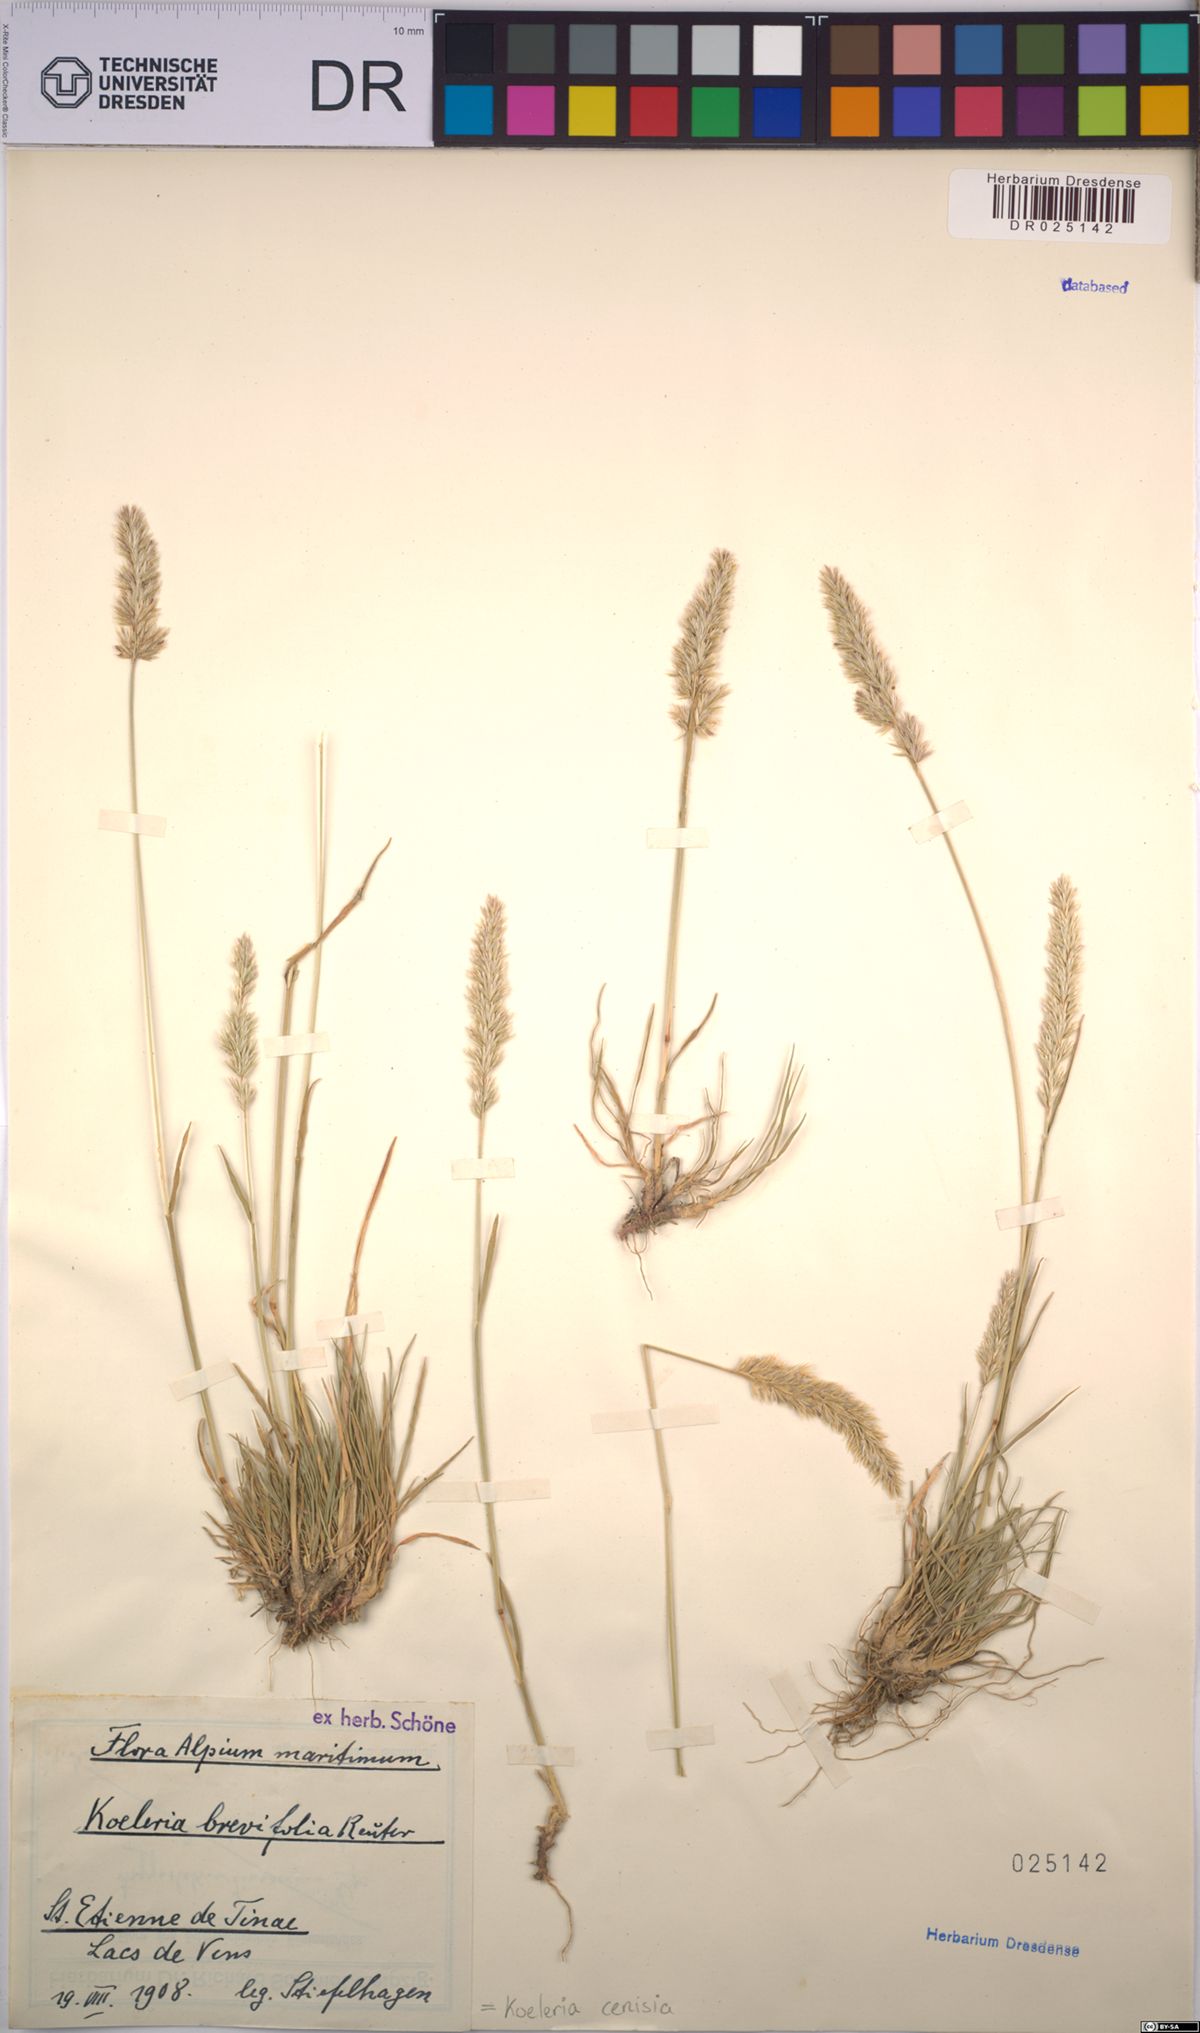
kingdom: Plantae
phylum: Tracheophyta
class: Liliopsida
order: Poales
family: Poaceae
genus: Koeleria
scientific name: Koeleria cenisia
